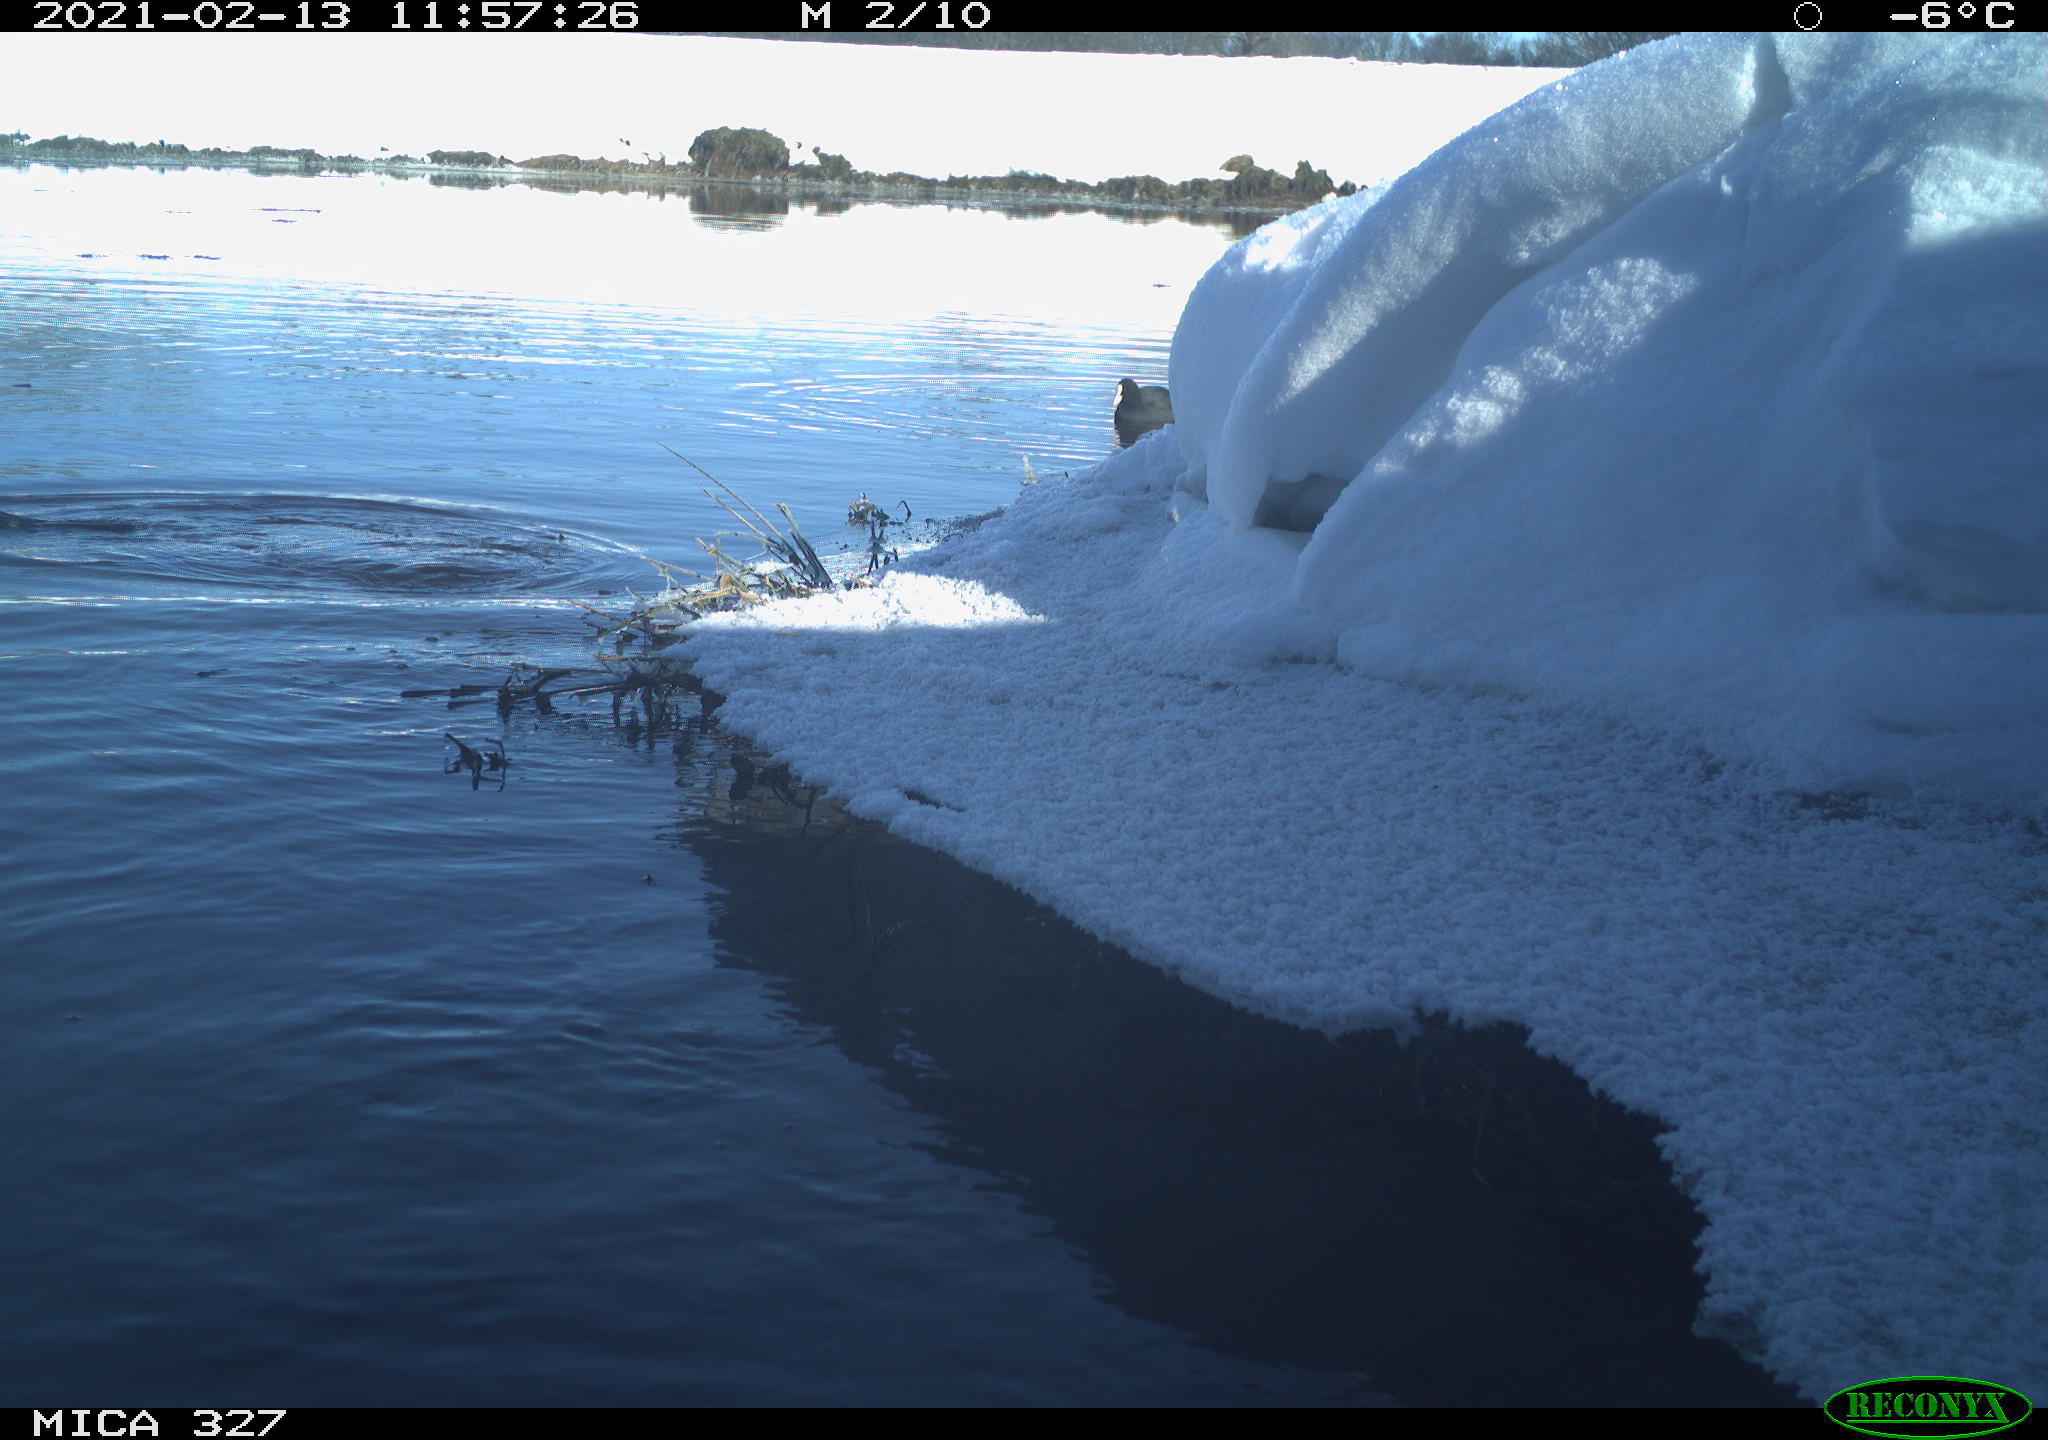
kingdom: Animalia
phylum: Chordata
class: Aves
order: Gruiformes
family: Rallidae
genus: Fulica
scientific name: Fulica atra
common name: Eurasian coot
